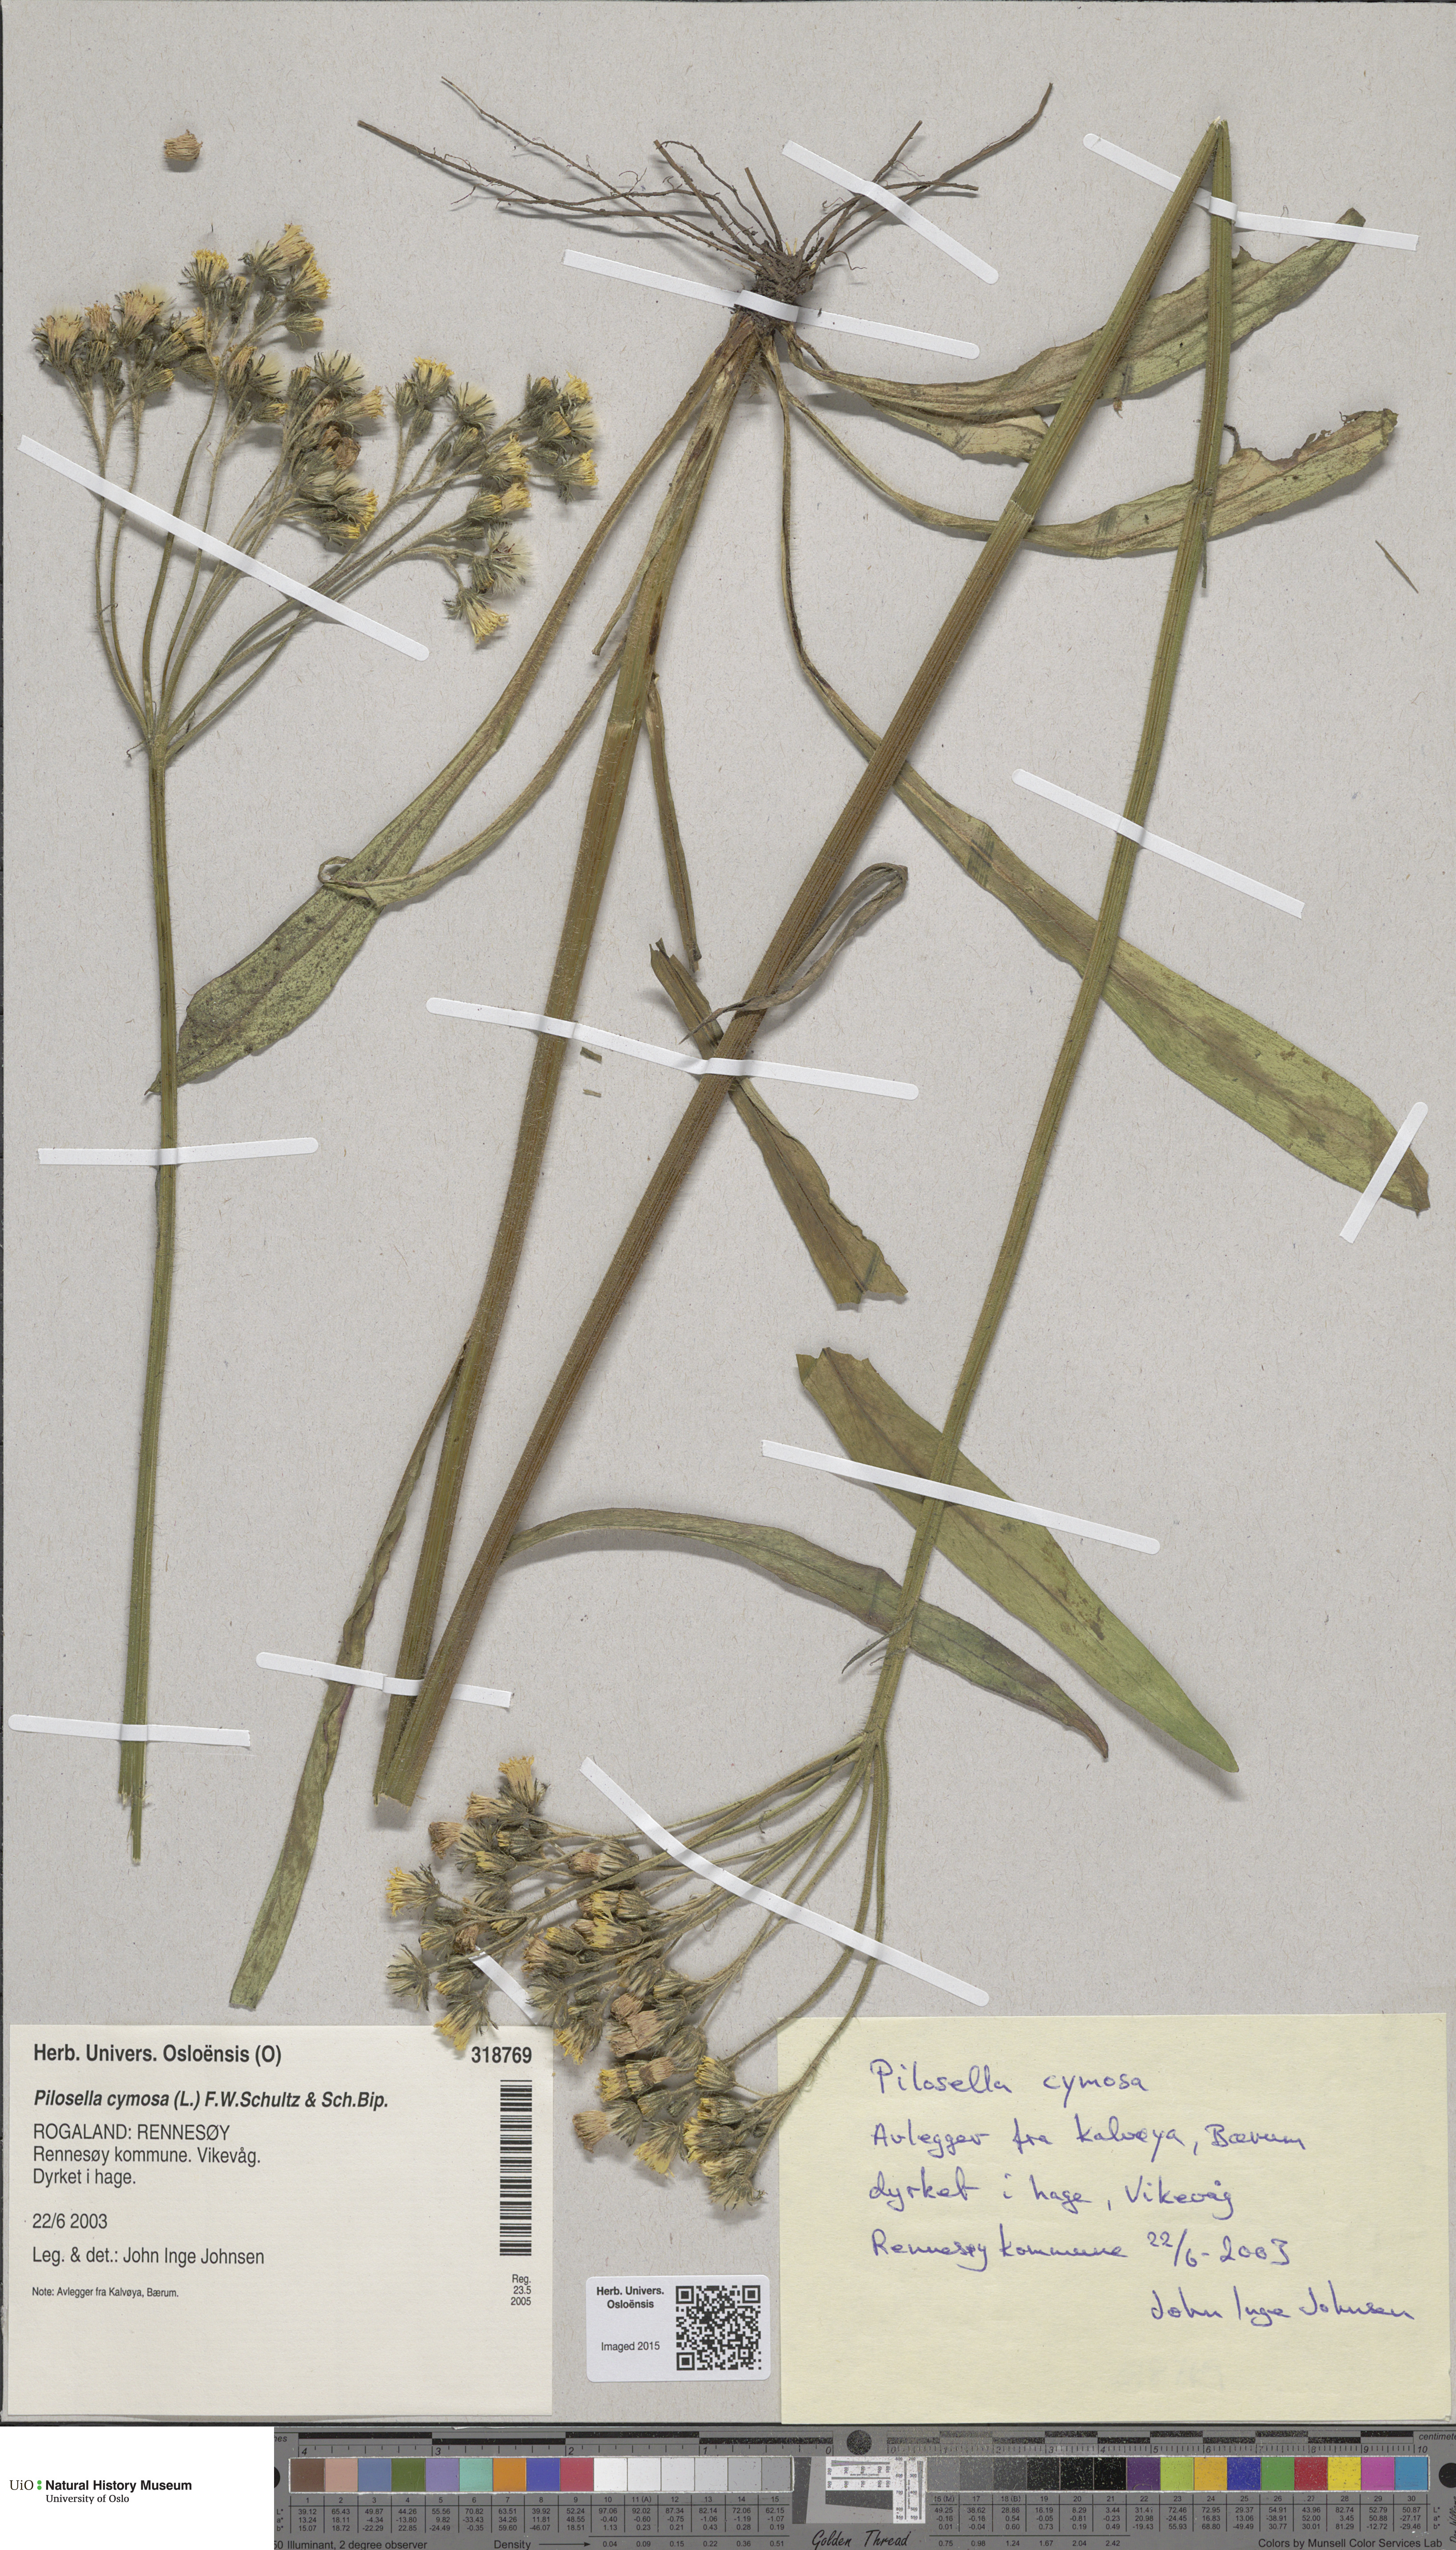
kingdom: Plantae
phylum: Tracheophyta
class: Magnoliopsida
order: Asterales
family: Asteraceae
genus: Pilosella
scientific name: Pilosella cymosa
